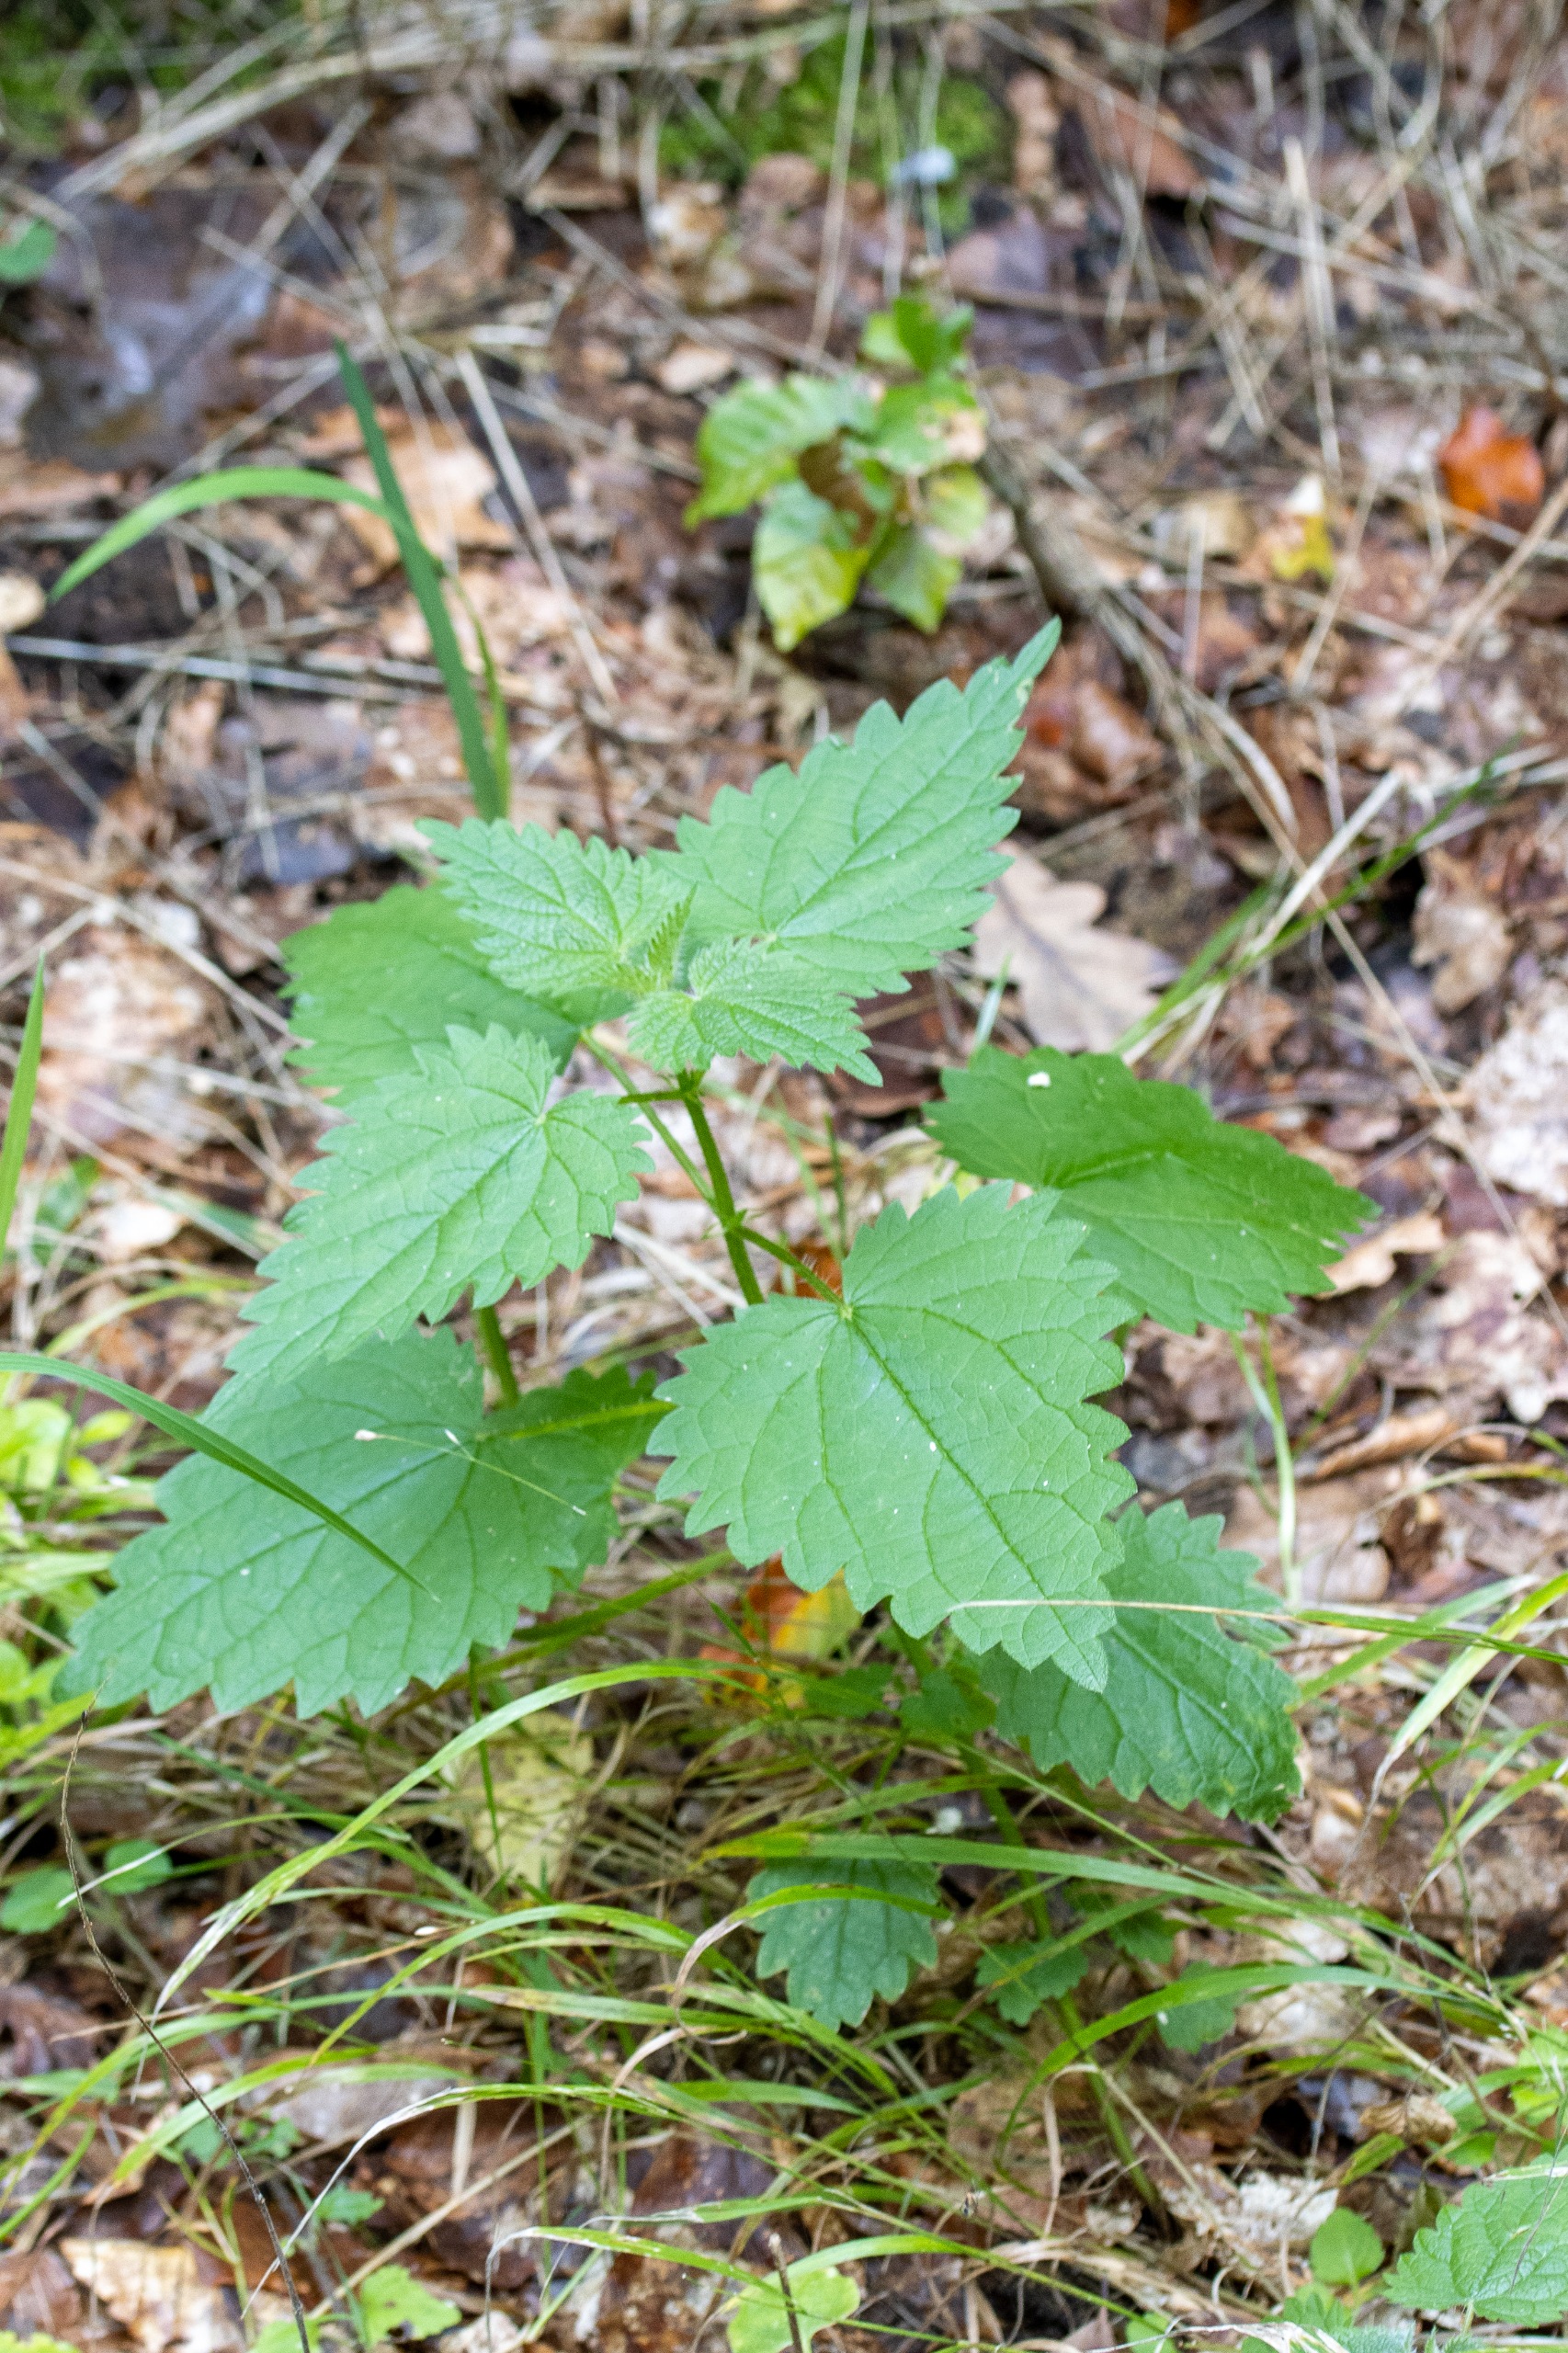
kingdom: Plantae
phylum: Tracheophyta
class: Magnoliopsida
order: Rosales
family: Urticaceae
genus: Urtica
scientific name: Urtica dioica
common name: Stor nælde
